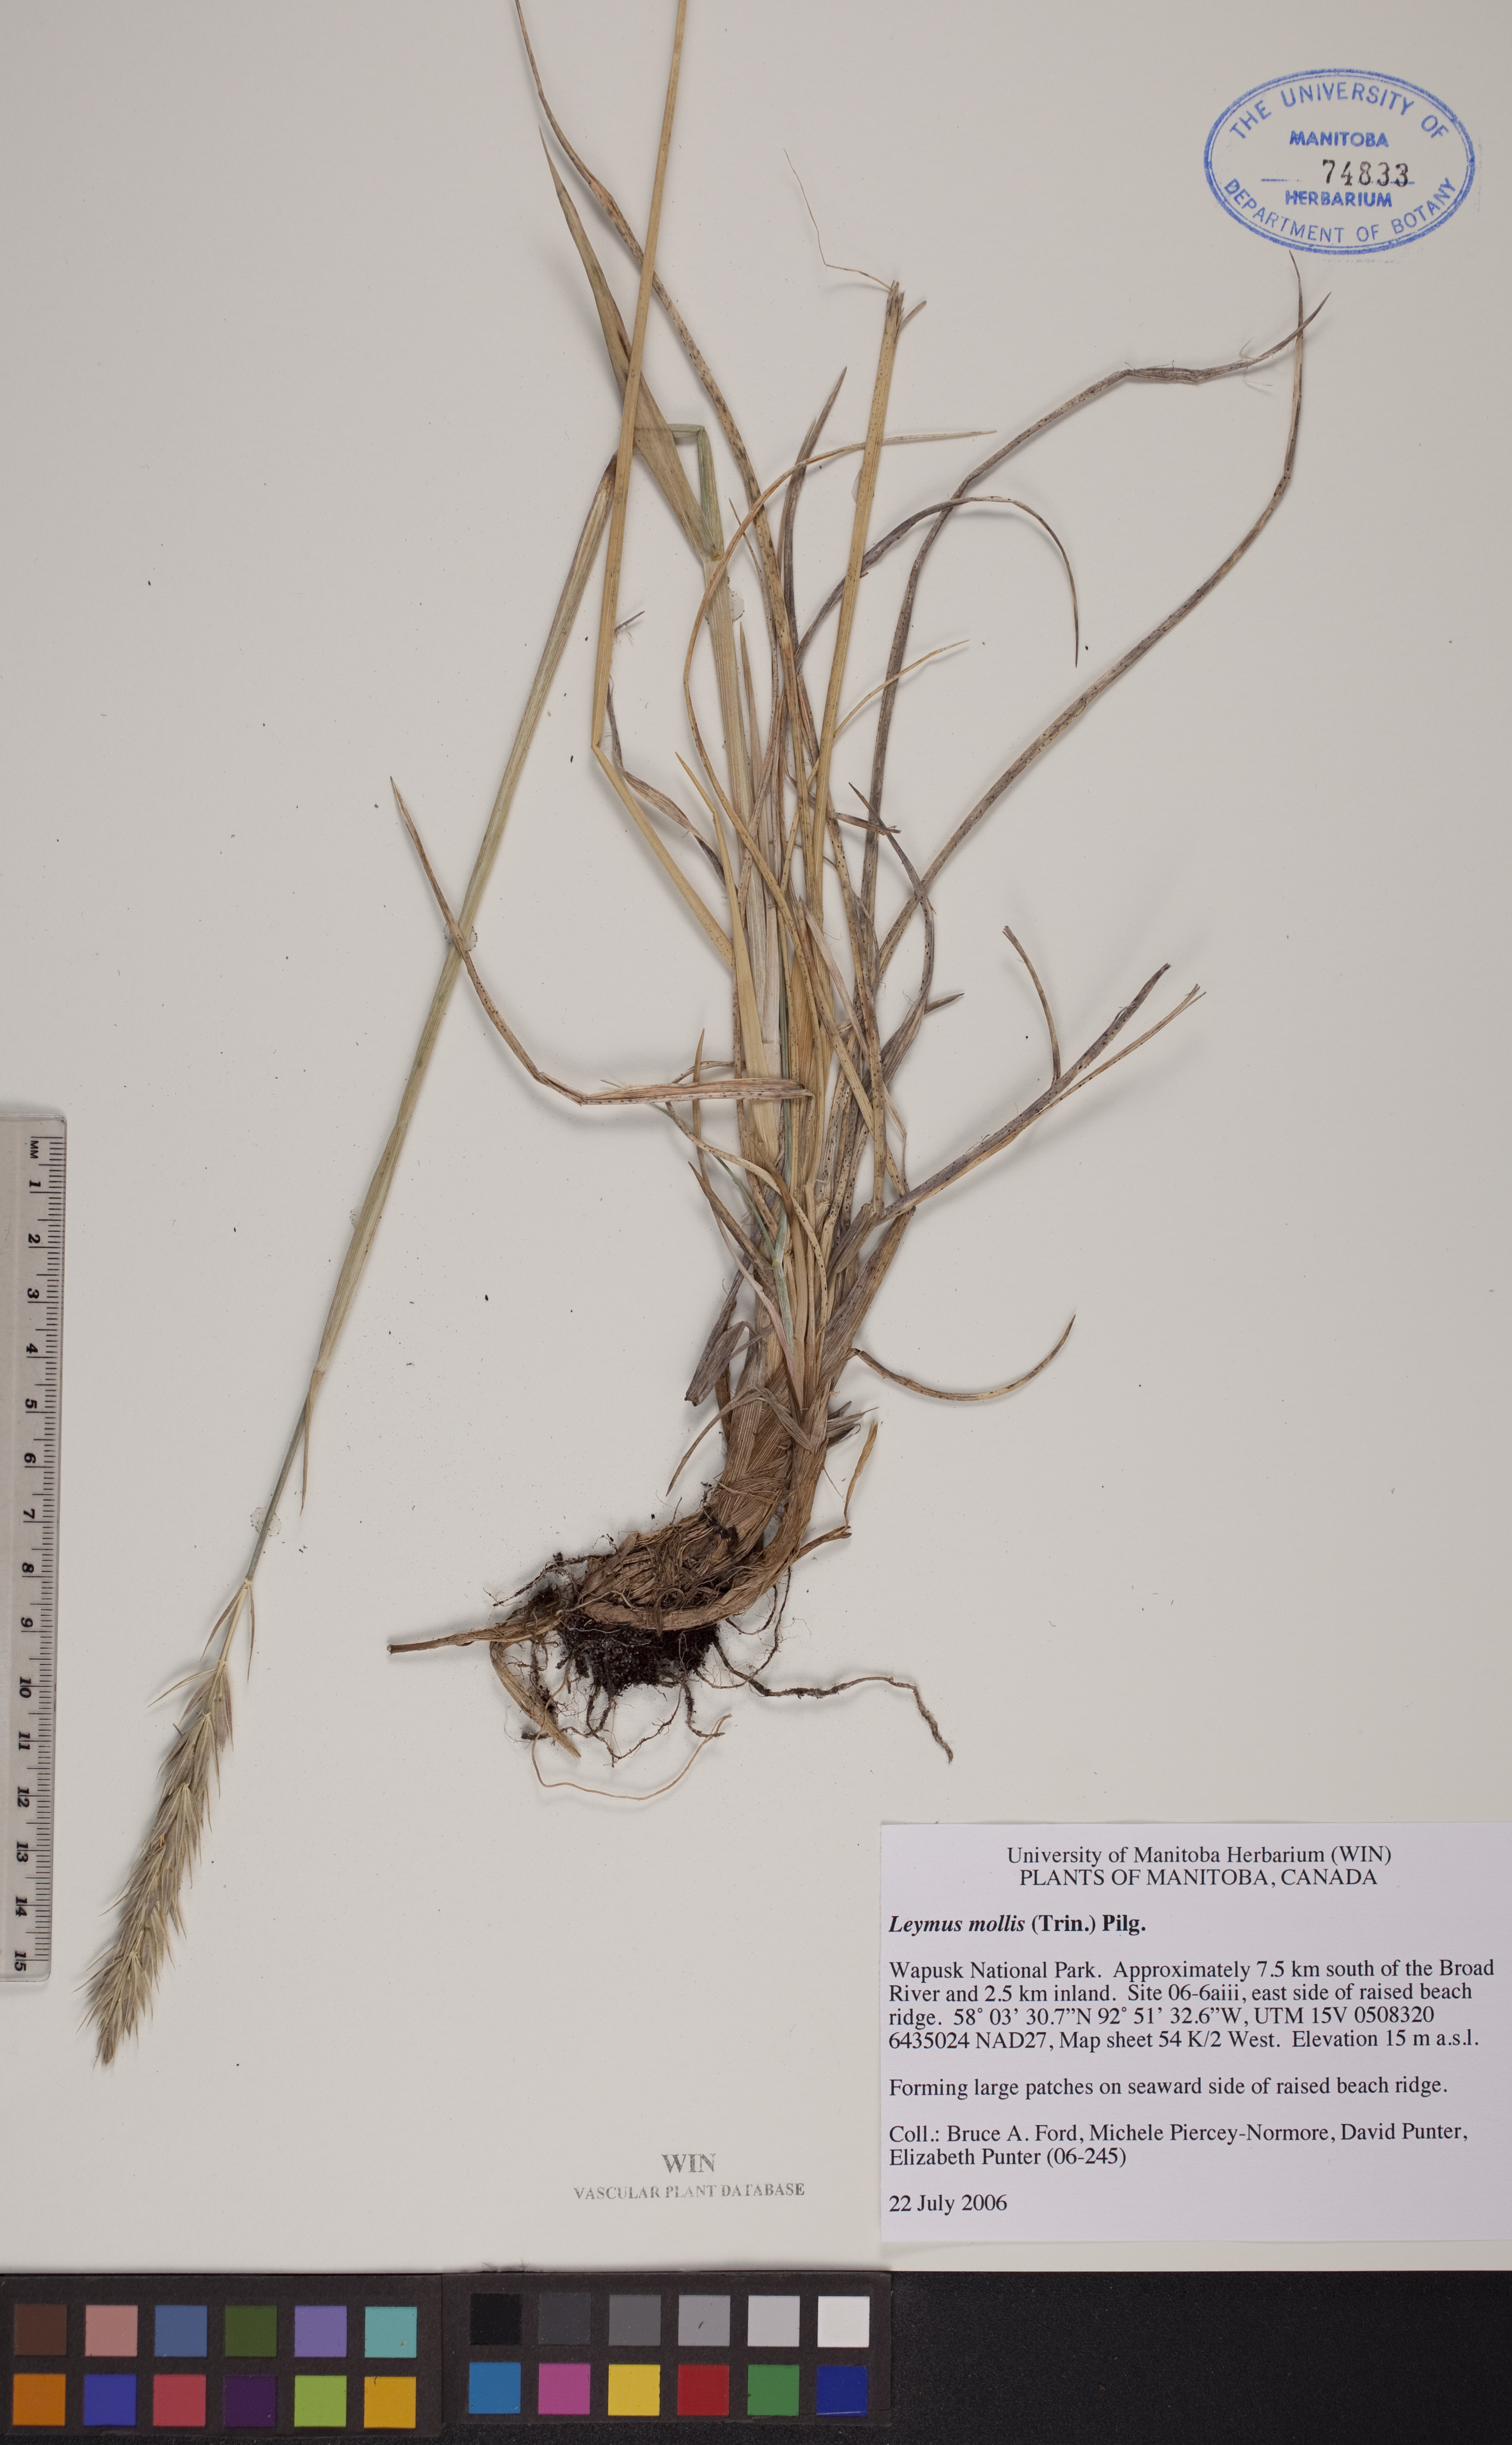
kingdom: Plantae
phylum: Tracheophyta
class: Liliopsida
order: Poales
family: Poaceae
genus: Leymus
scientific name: Leymus mollis
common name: American dune grass
